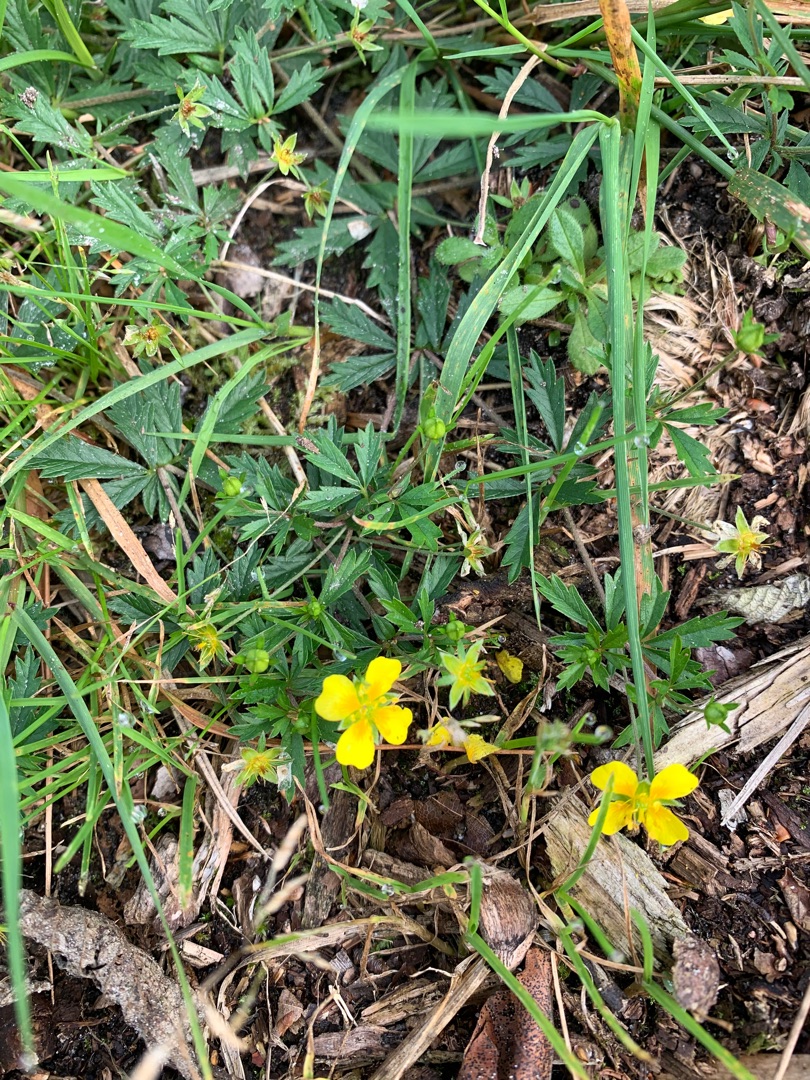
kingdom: Plantae
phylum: Tracheophyta
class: Magnoliopsida
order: Rosales
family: Rosaceae
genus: Potentilla
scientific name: Potentilla erecta
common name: Tormentil
